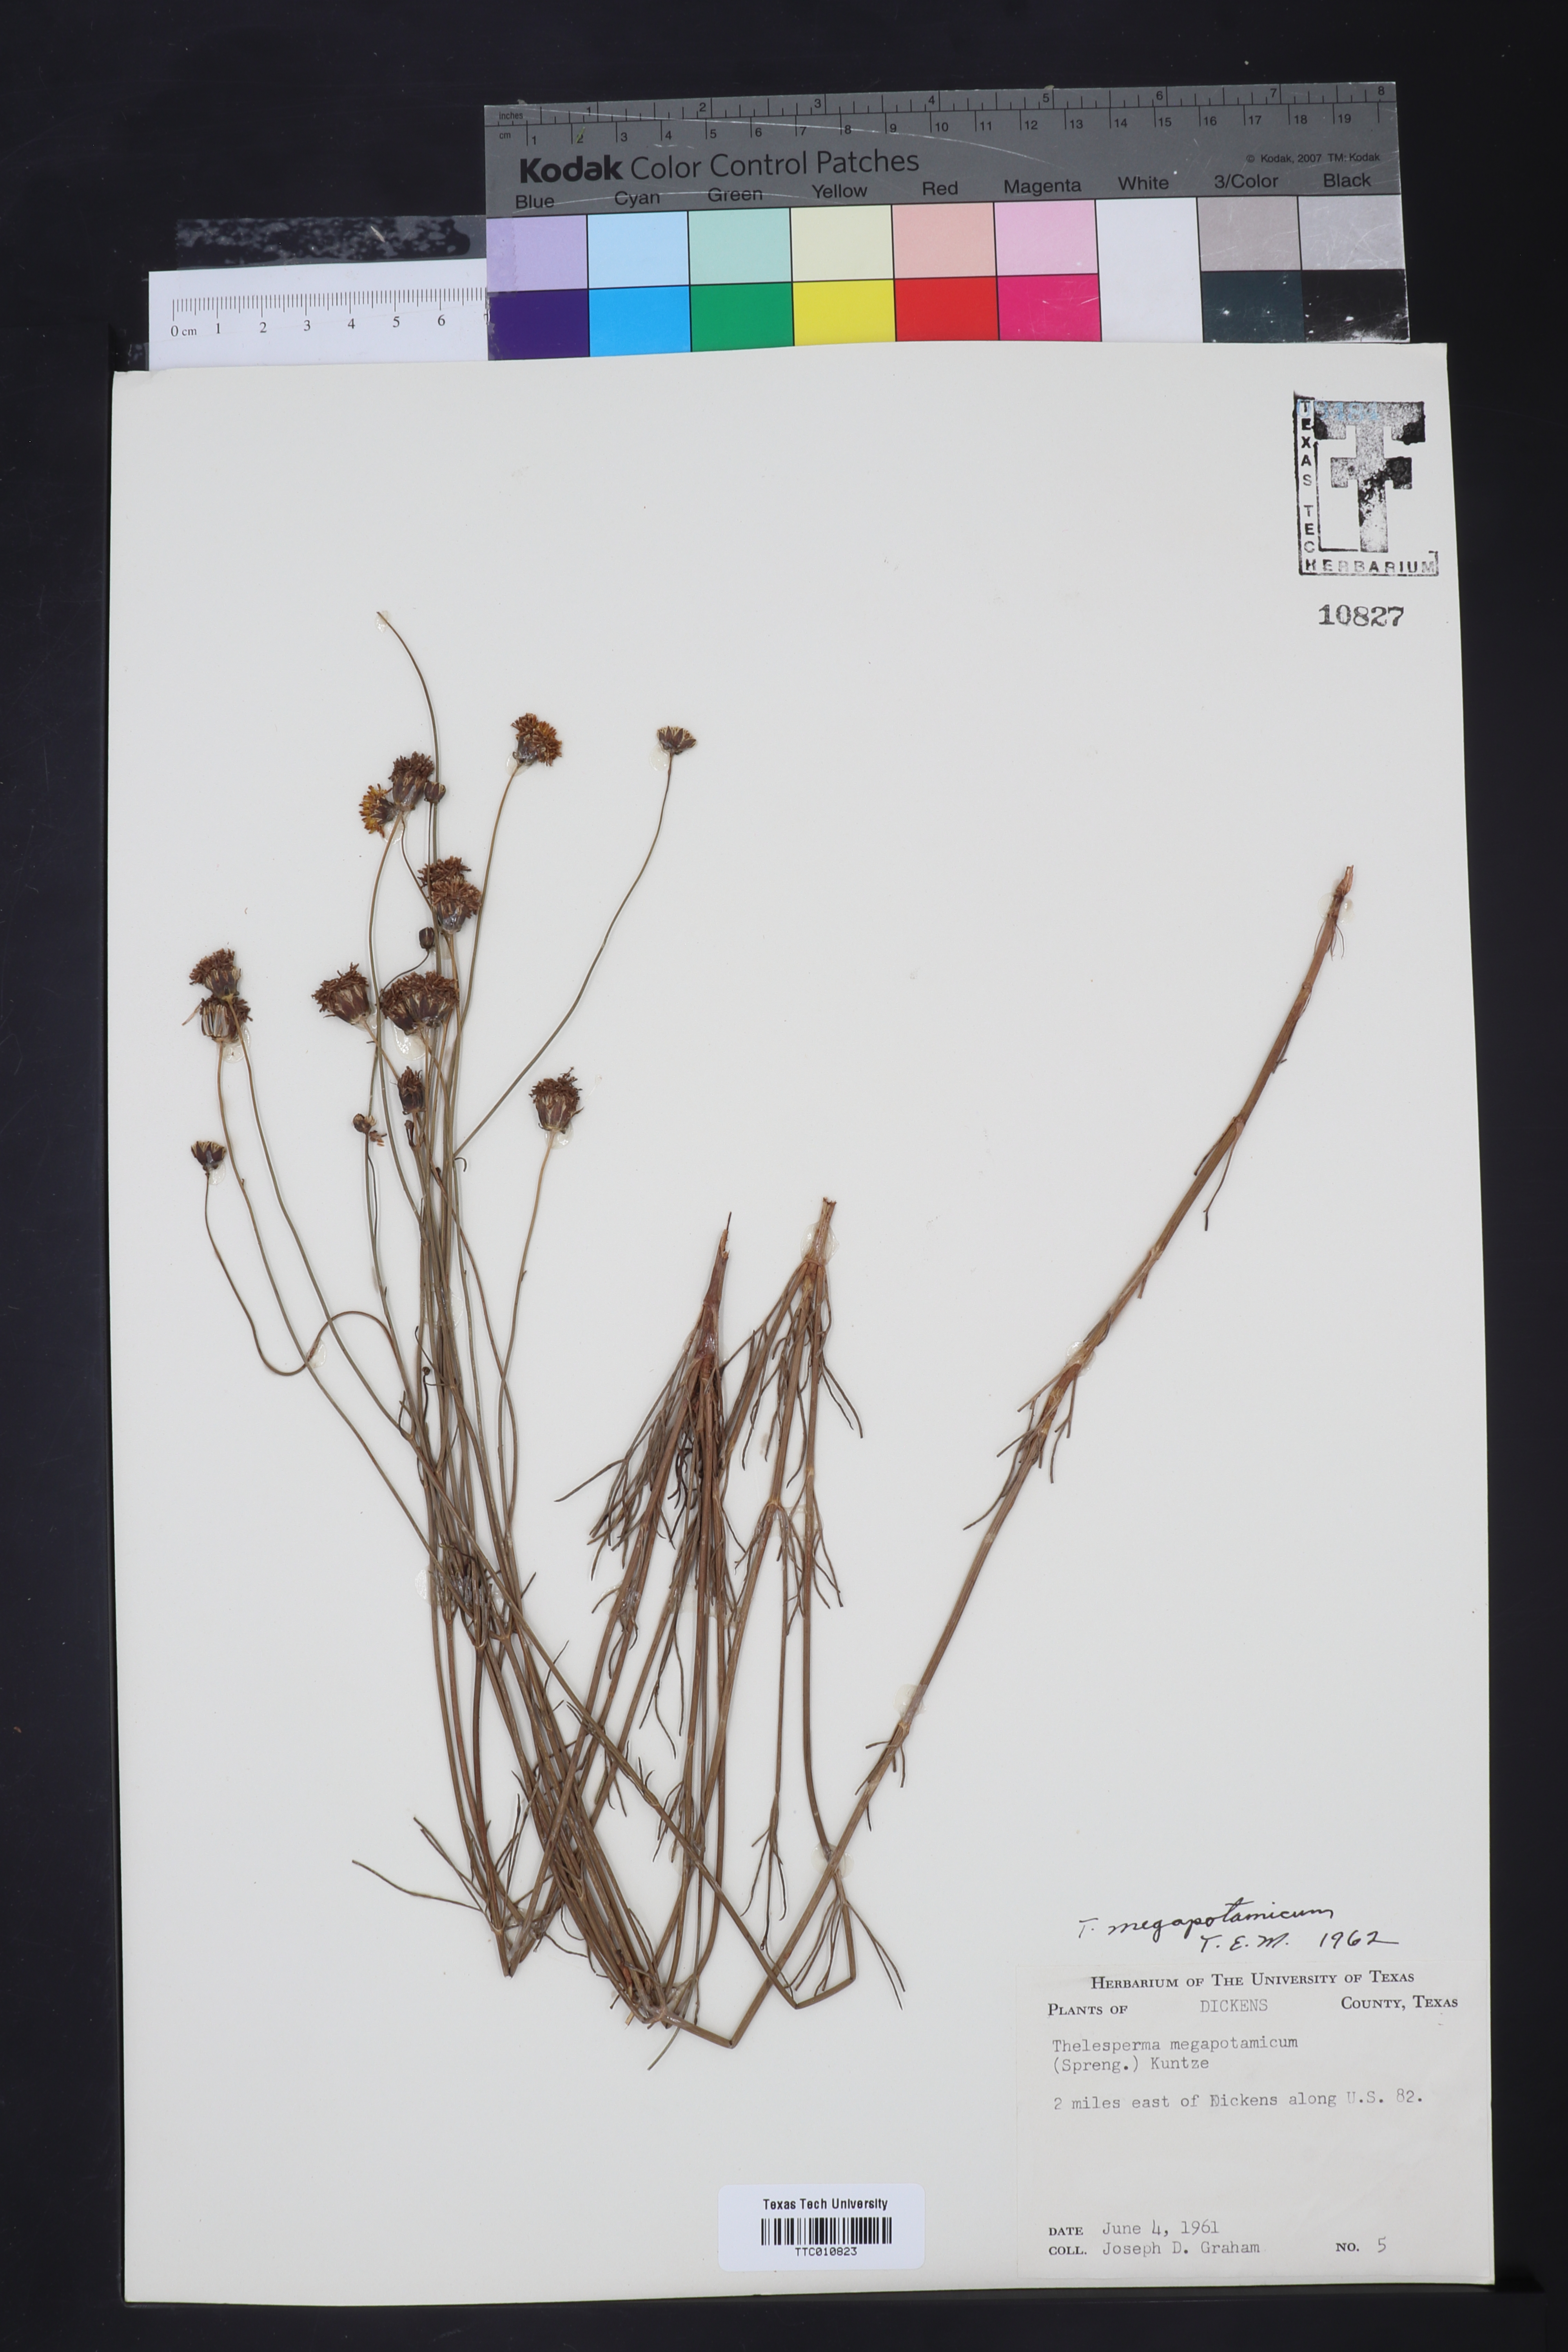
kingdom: Plantae
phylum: Tracheophyta
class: Magnoliopsida
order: Asterales
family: Asteraceae
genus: Thelesperma
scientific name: Thelesperma megapotamicum
